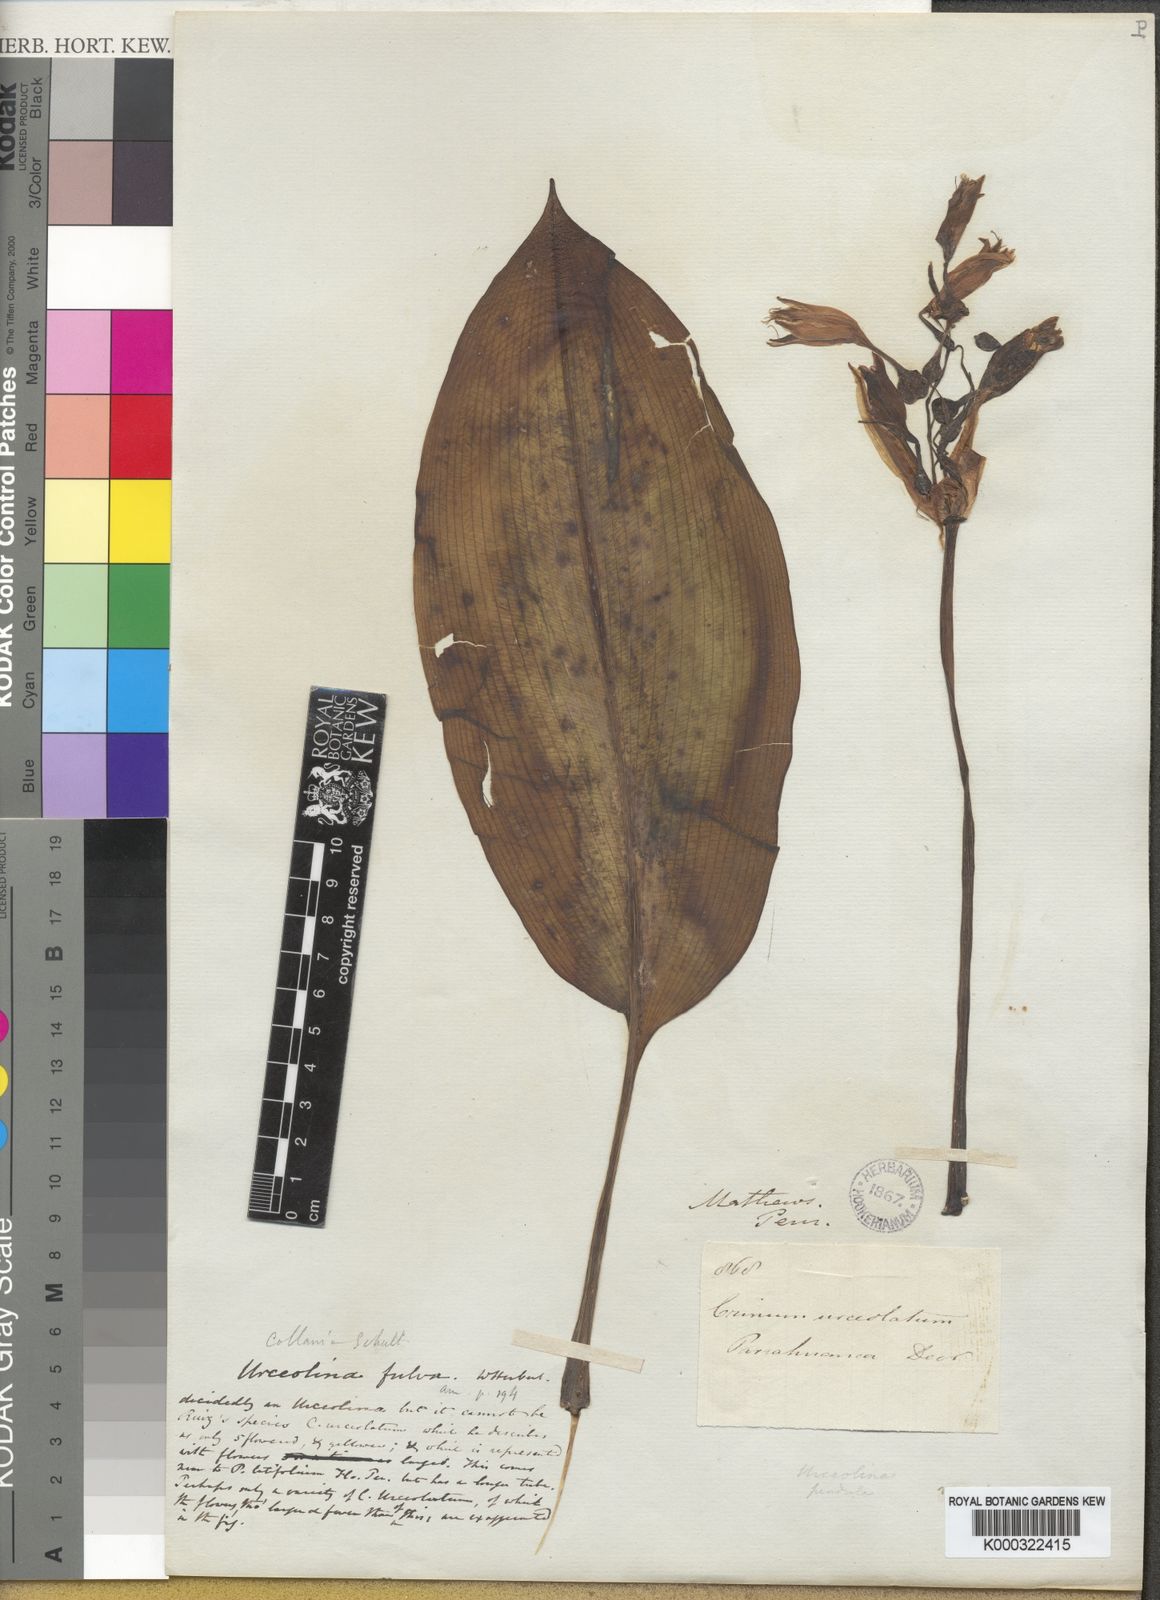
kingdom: Plantae
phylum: Tracheophyta
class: Liliopsida
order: Asparagales
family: Amaryllidaceae
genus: Urceolina
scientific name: Urceolina fulva
